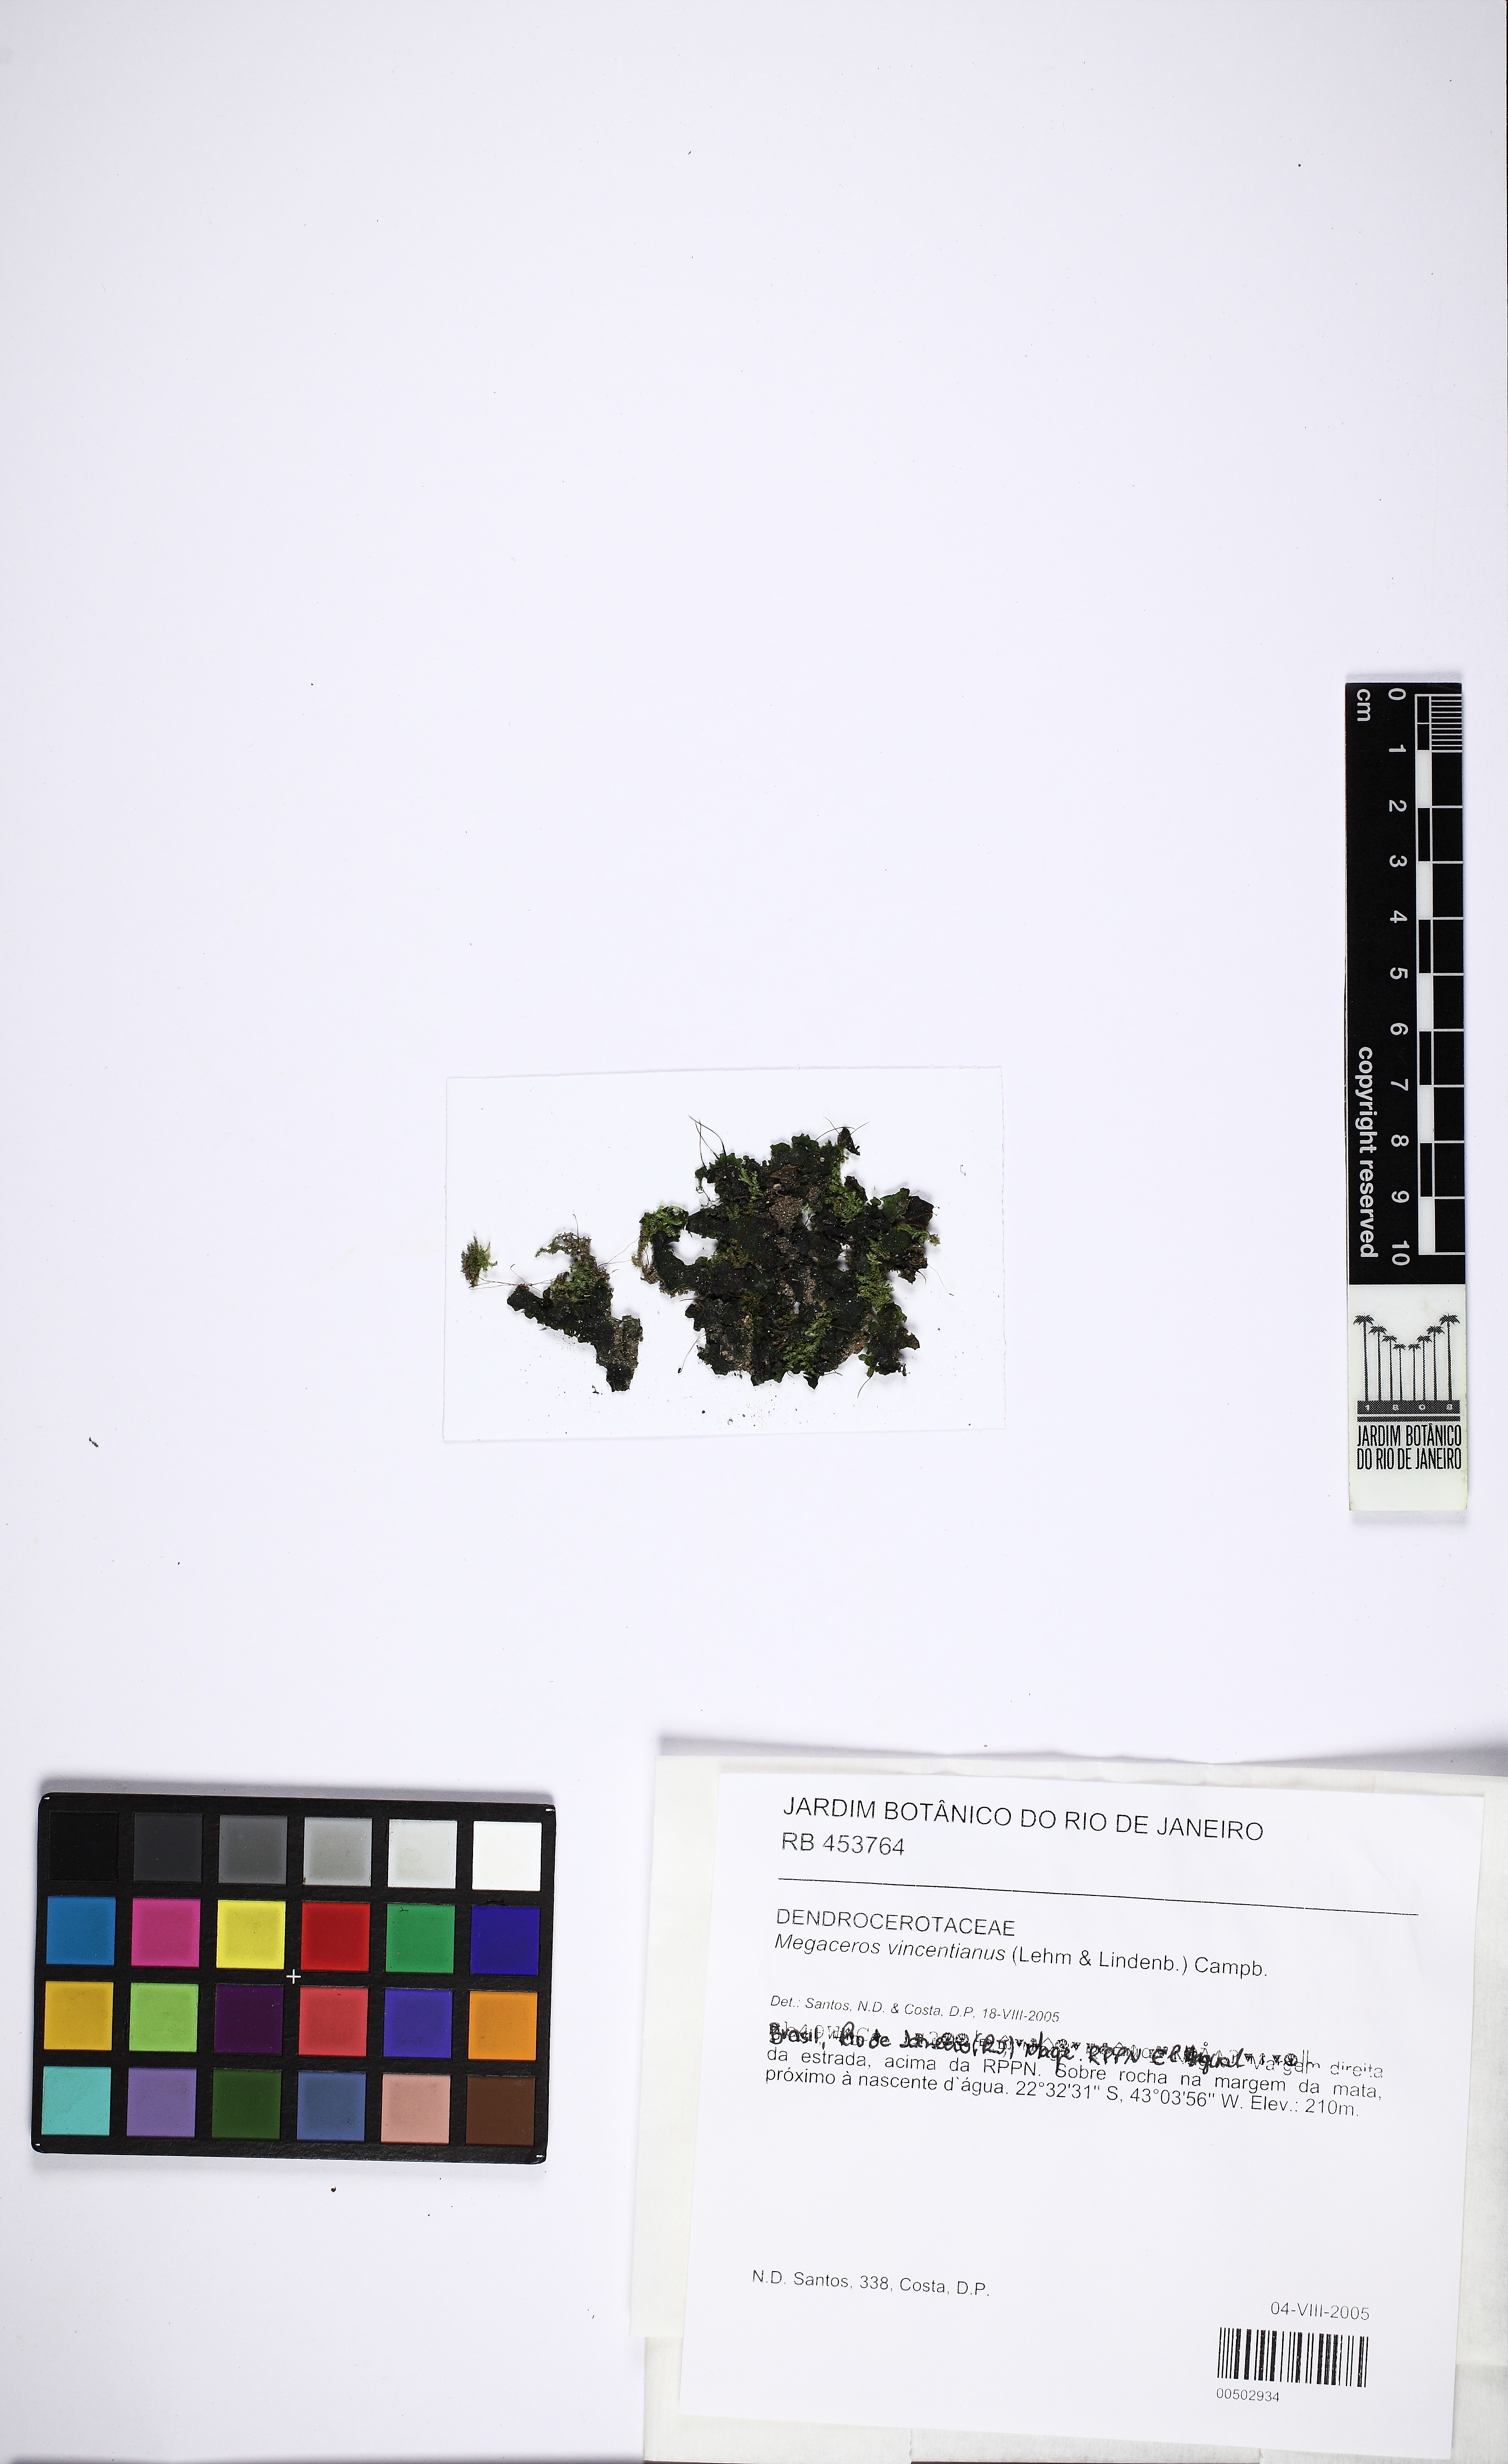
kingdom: Plantae
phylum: Anthocerotophyta
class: Anthocerotopsida
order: Dendrocerotales
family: Dendrocerotaceae
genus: Nothoceros
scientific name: Nothoceros vincentianus
